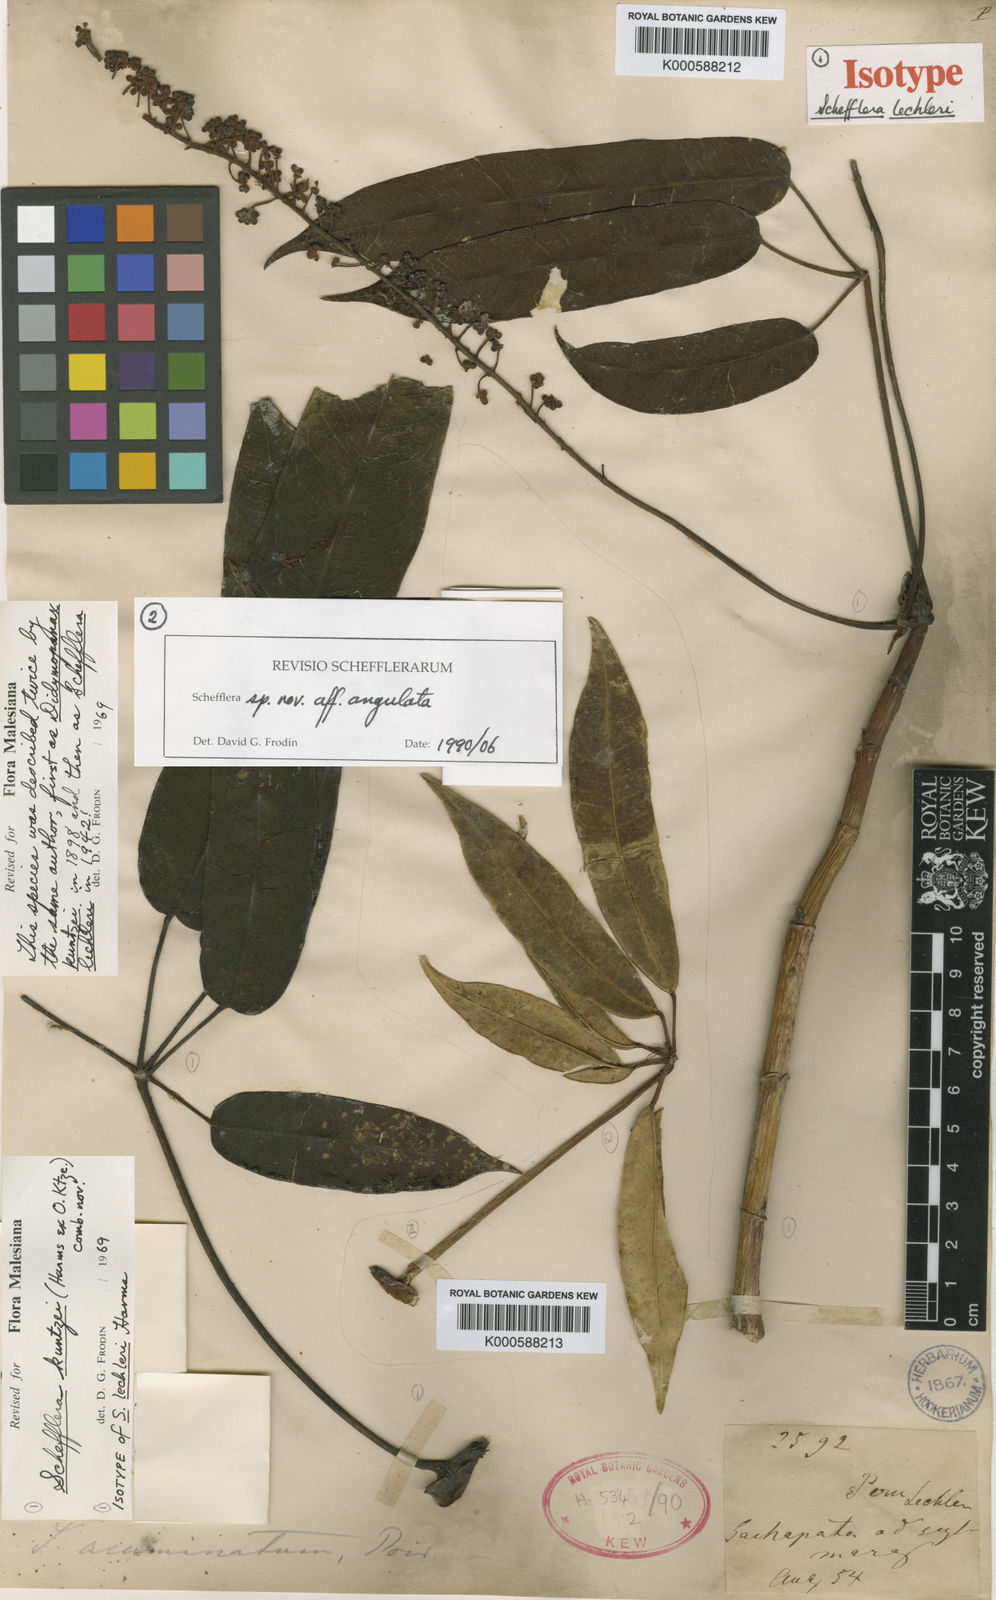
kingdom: Plantae
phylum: Tracheophyta
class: Magnoliopsida
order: Apiales
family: Araliaceae
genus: Sciodaphyllum
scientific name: Sciodaphyllum kuntzei
